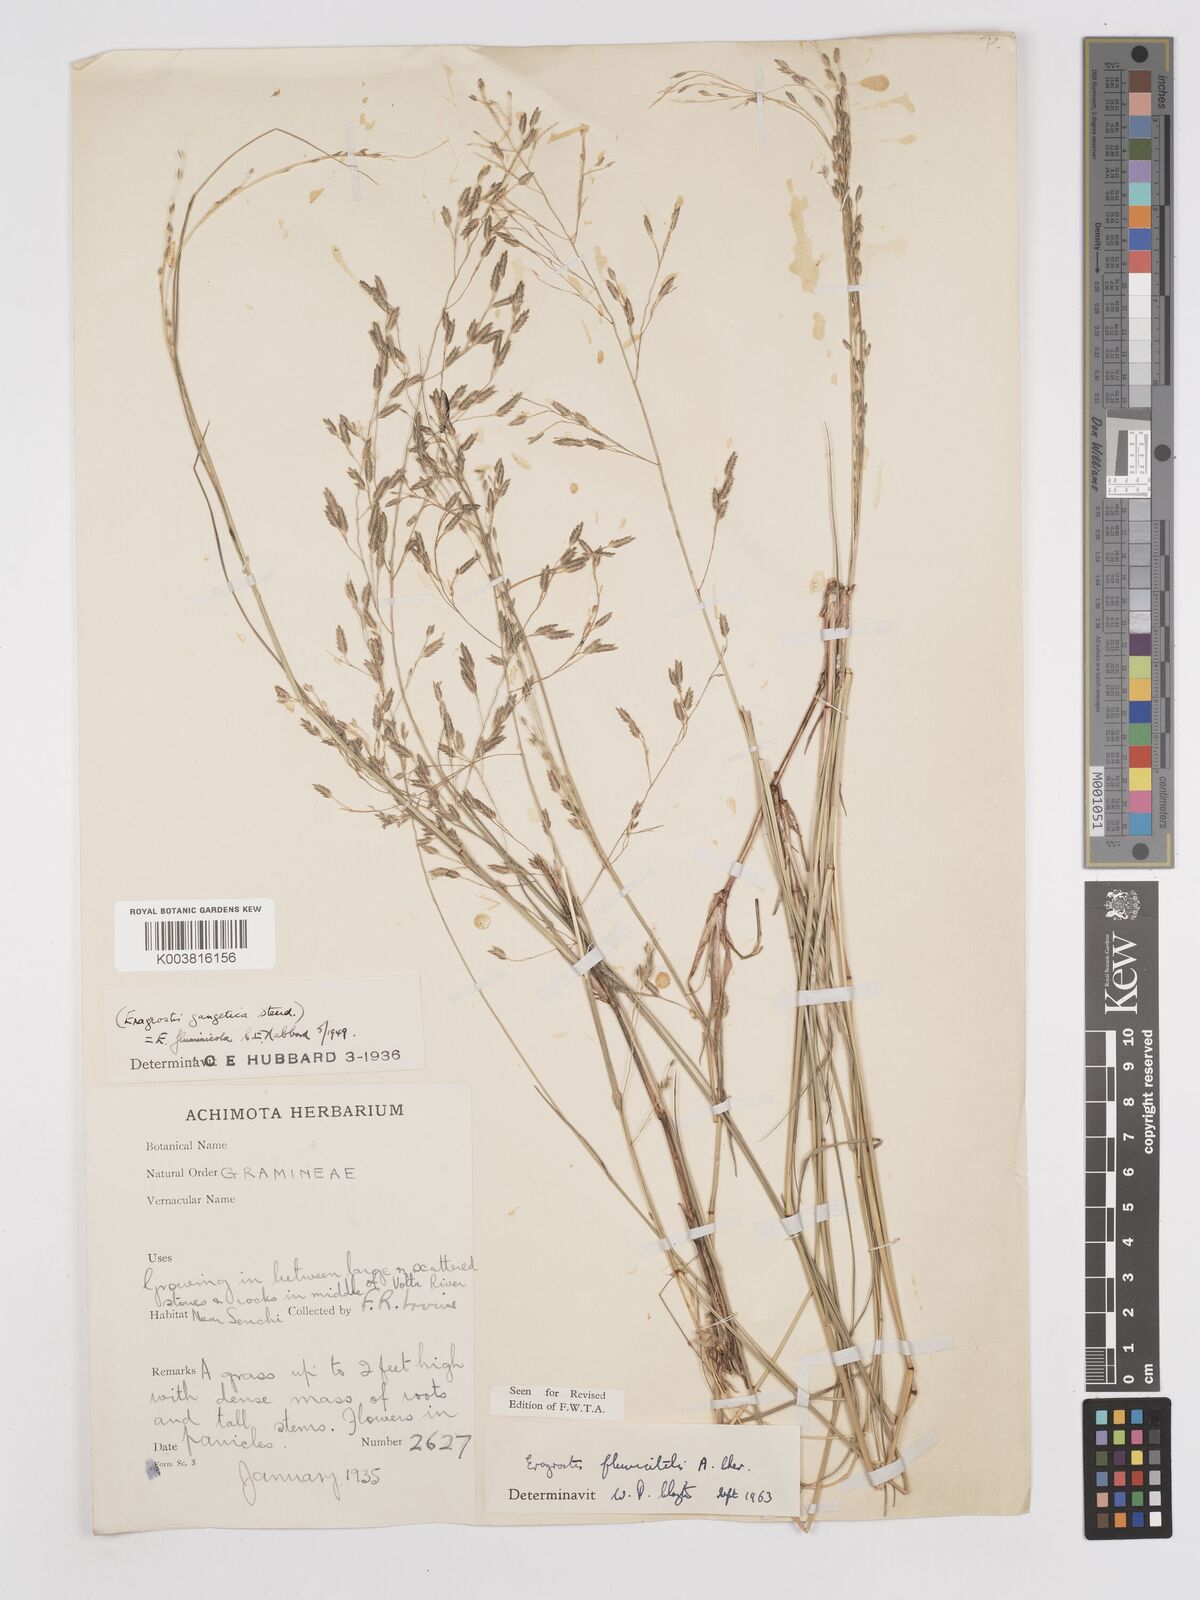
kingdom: Plantae
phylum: Tracheophyta
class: Liliopsida
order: Poales
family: Poaceae
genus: Eragrostis
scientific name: Eragrostis barteri
